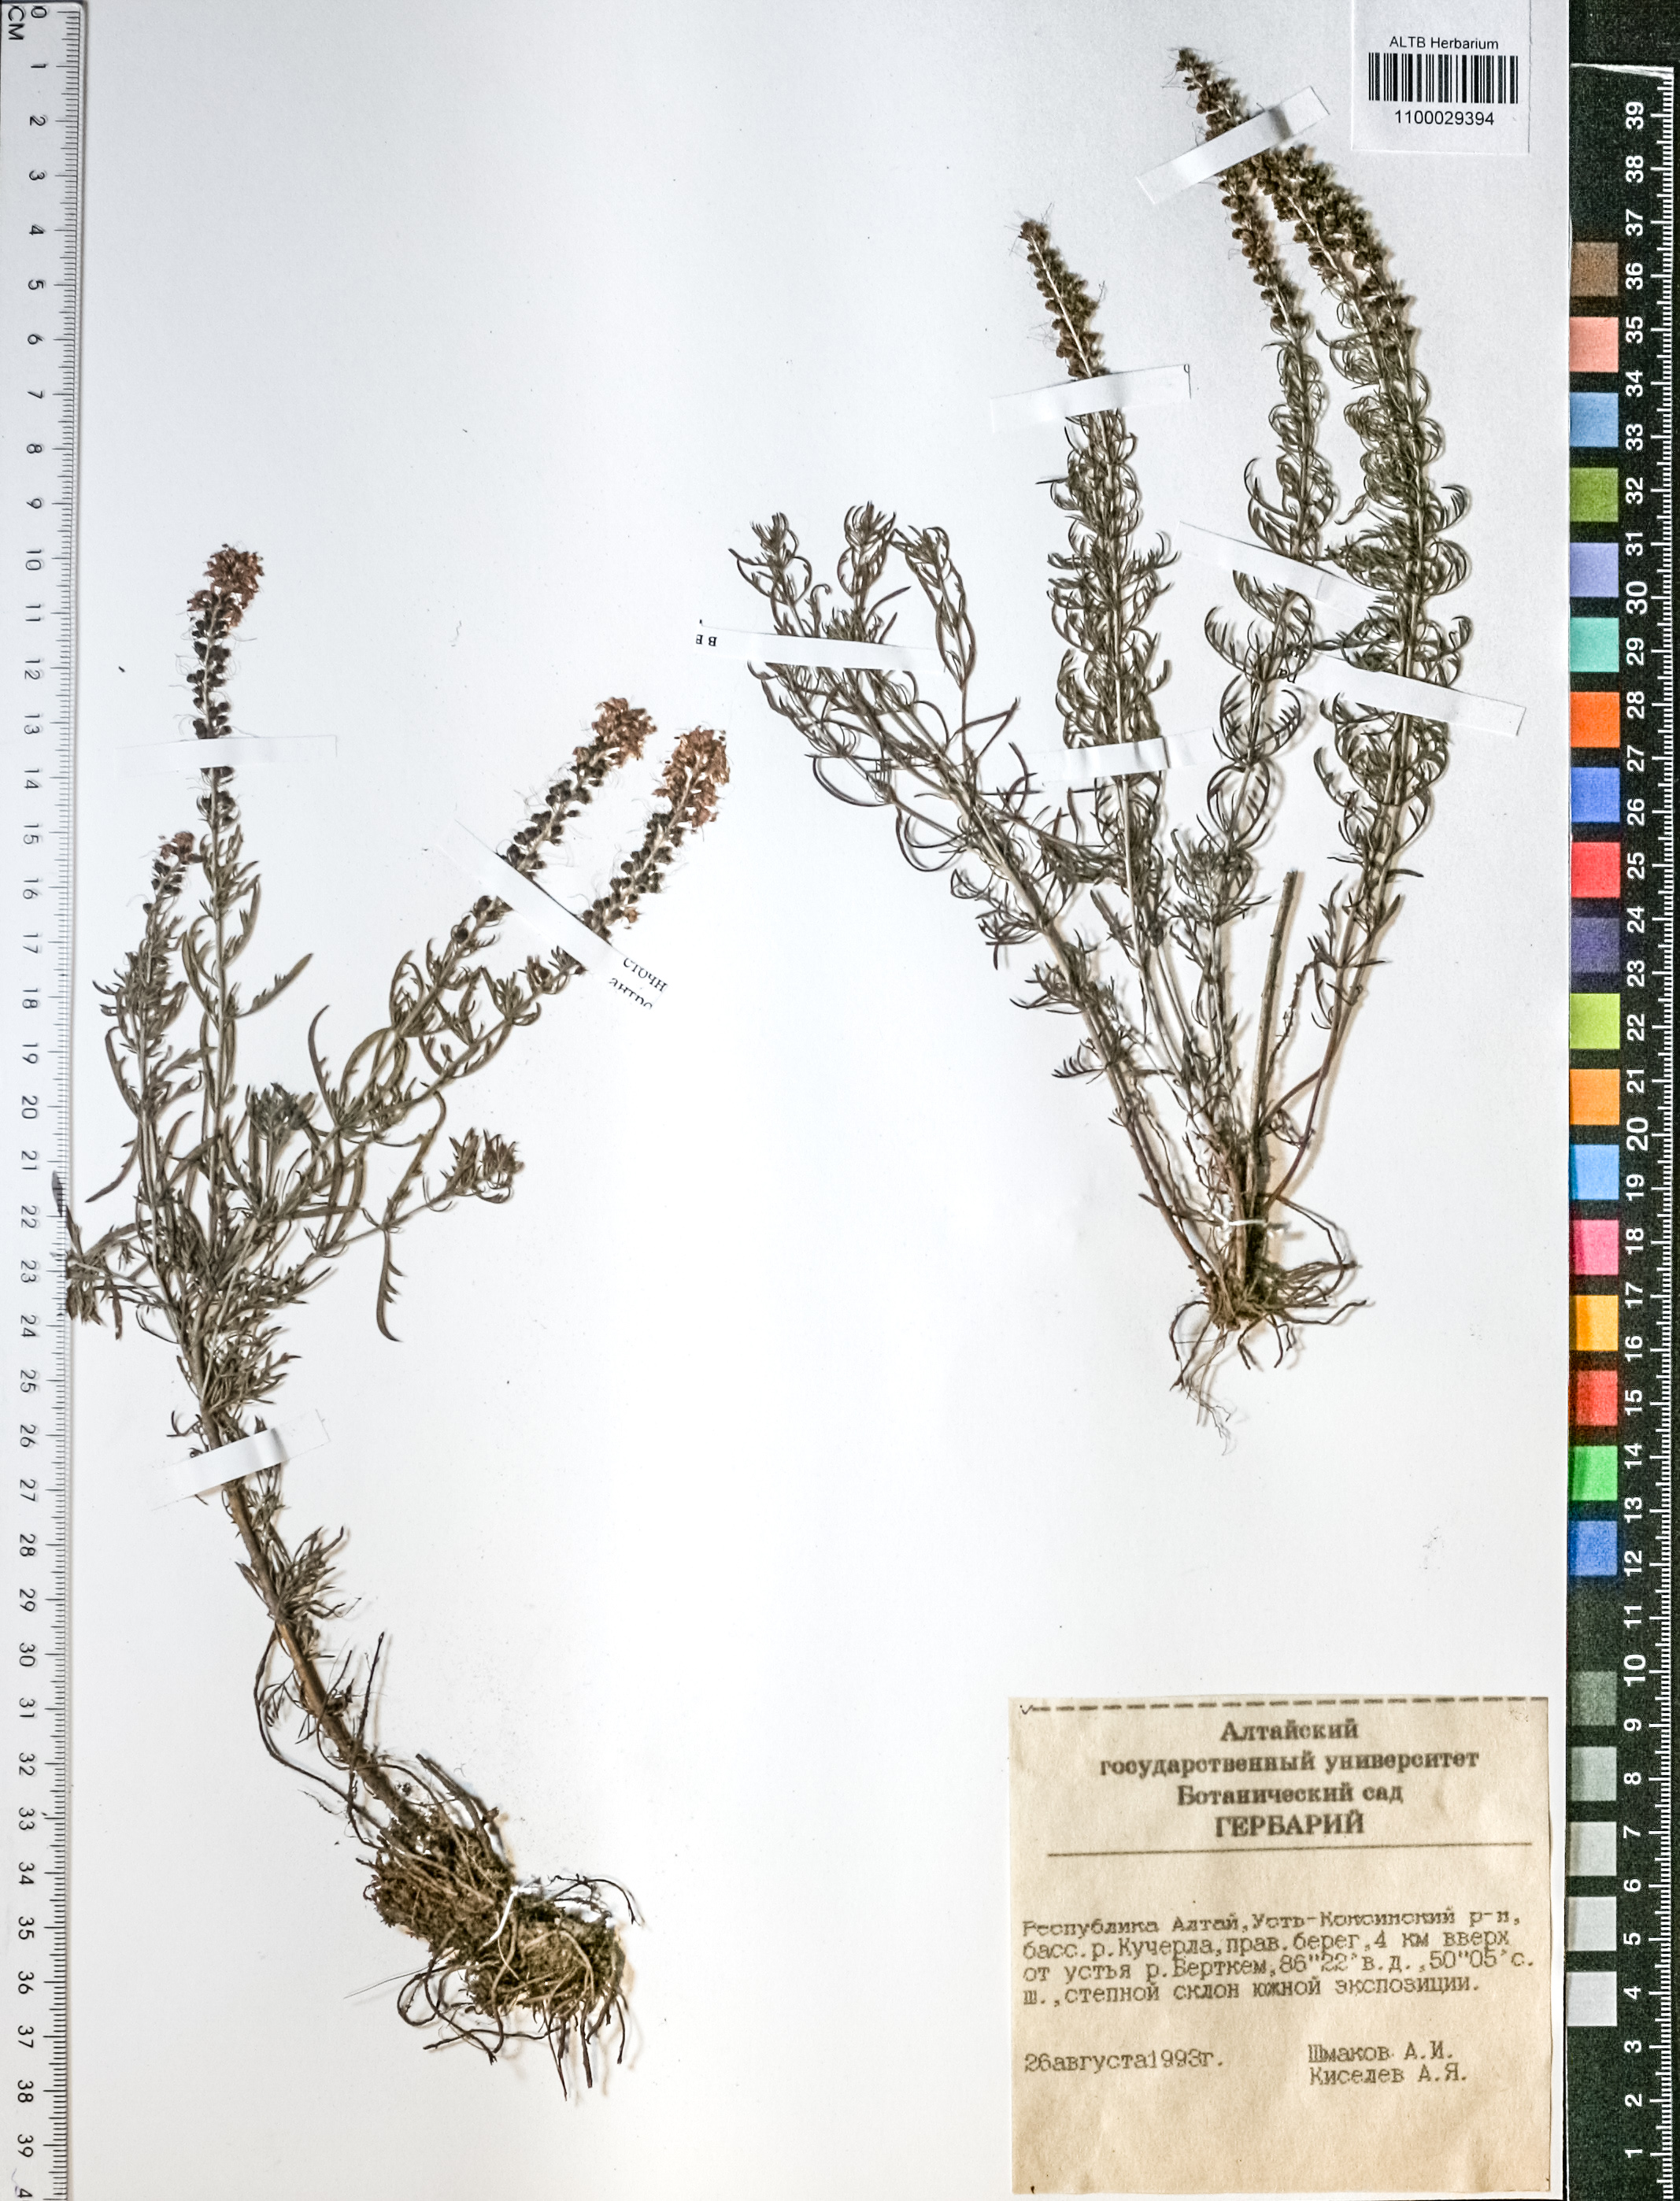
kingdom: Plantae
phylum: Tracheophyta
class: Magnoliopsida
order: Lamiales
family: Plantaginaceae
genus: Veronica
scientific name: Veronica pinnata
